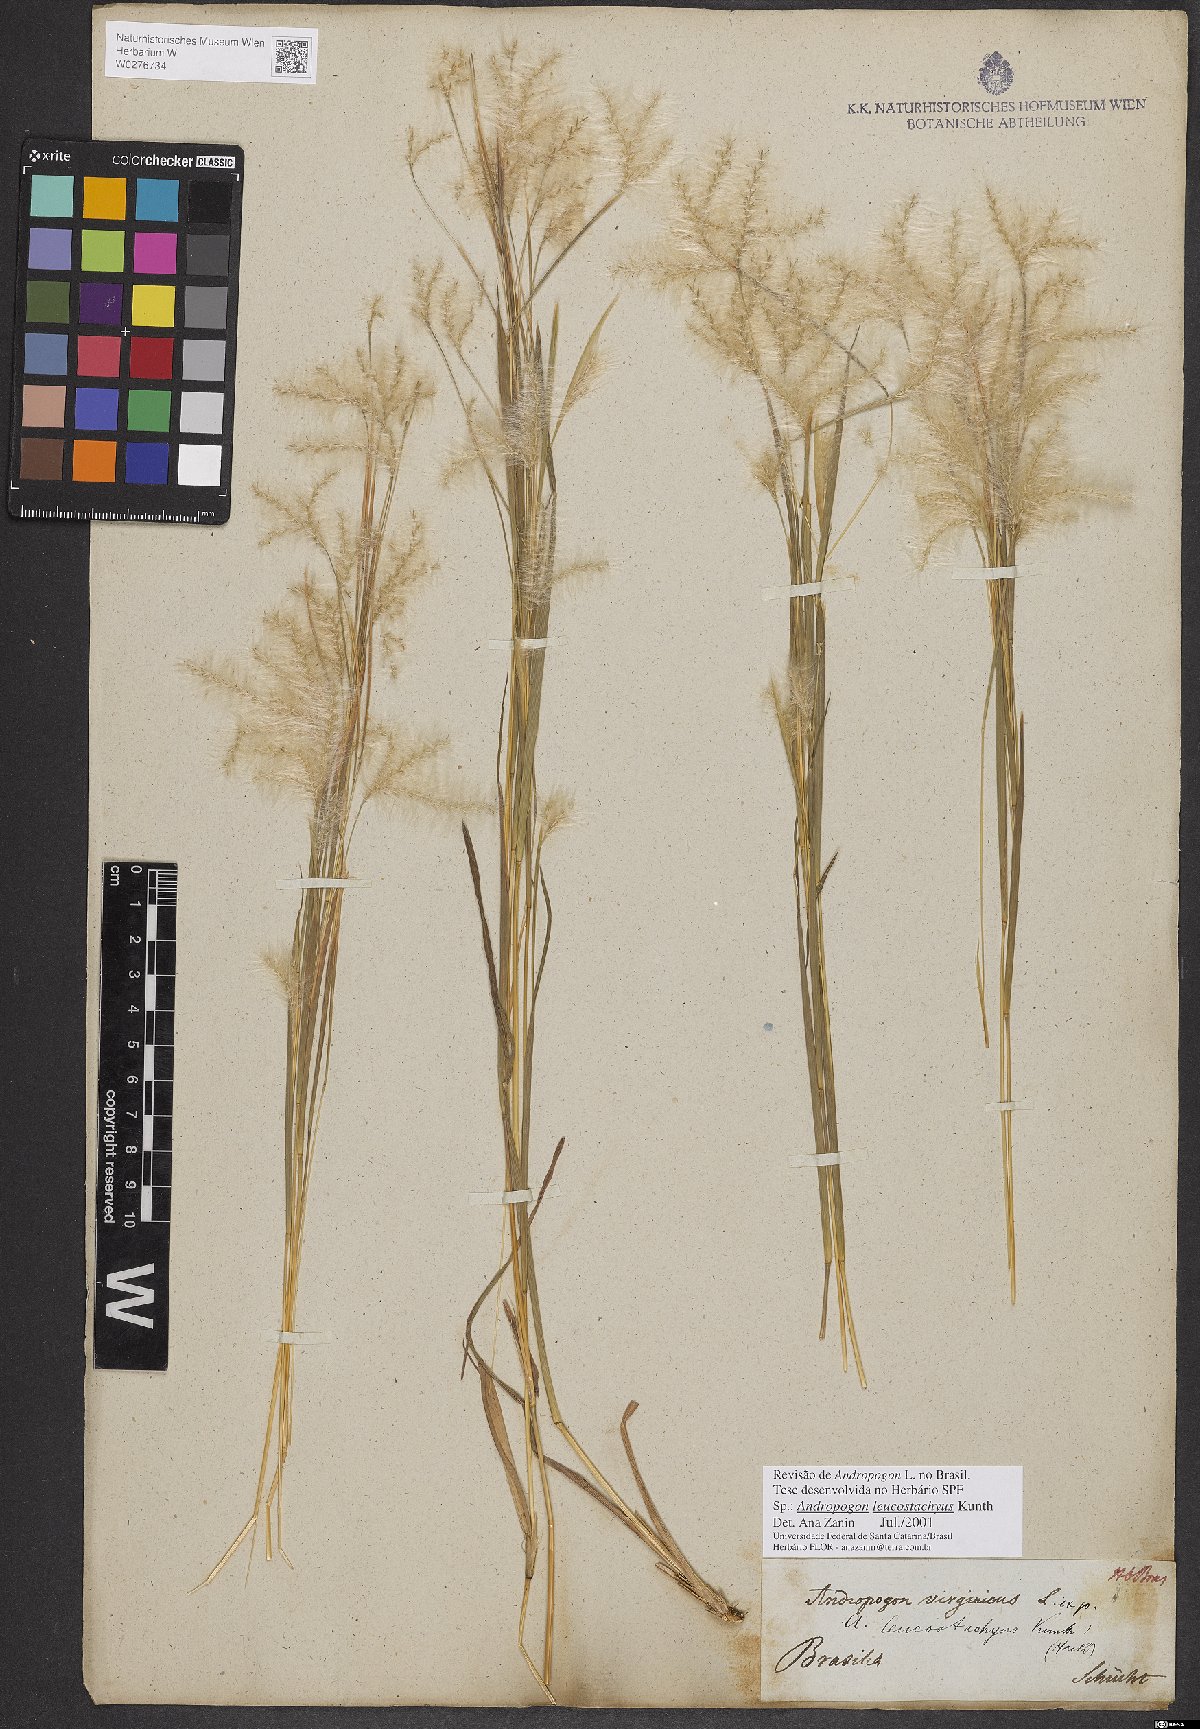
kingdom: Plantae
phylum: Tracheophyta
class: Liliopsida
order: Poales
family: Poaceae
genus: Andropogon
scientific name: Andropogon leucostachyus
